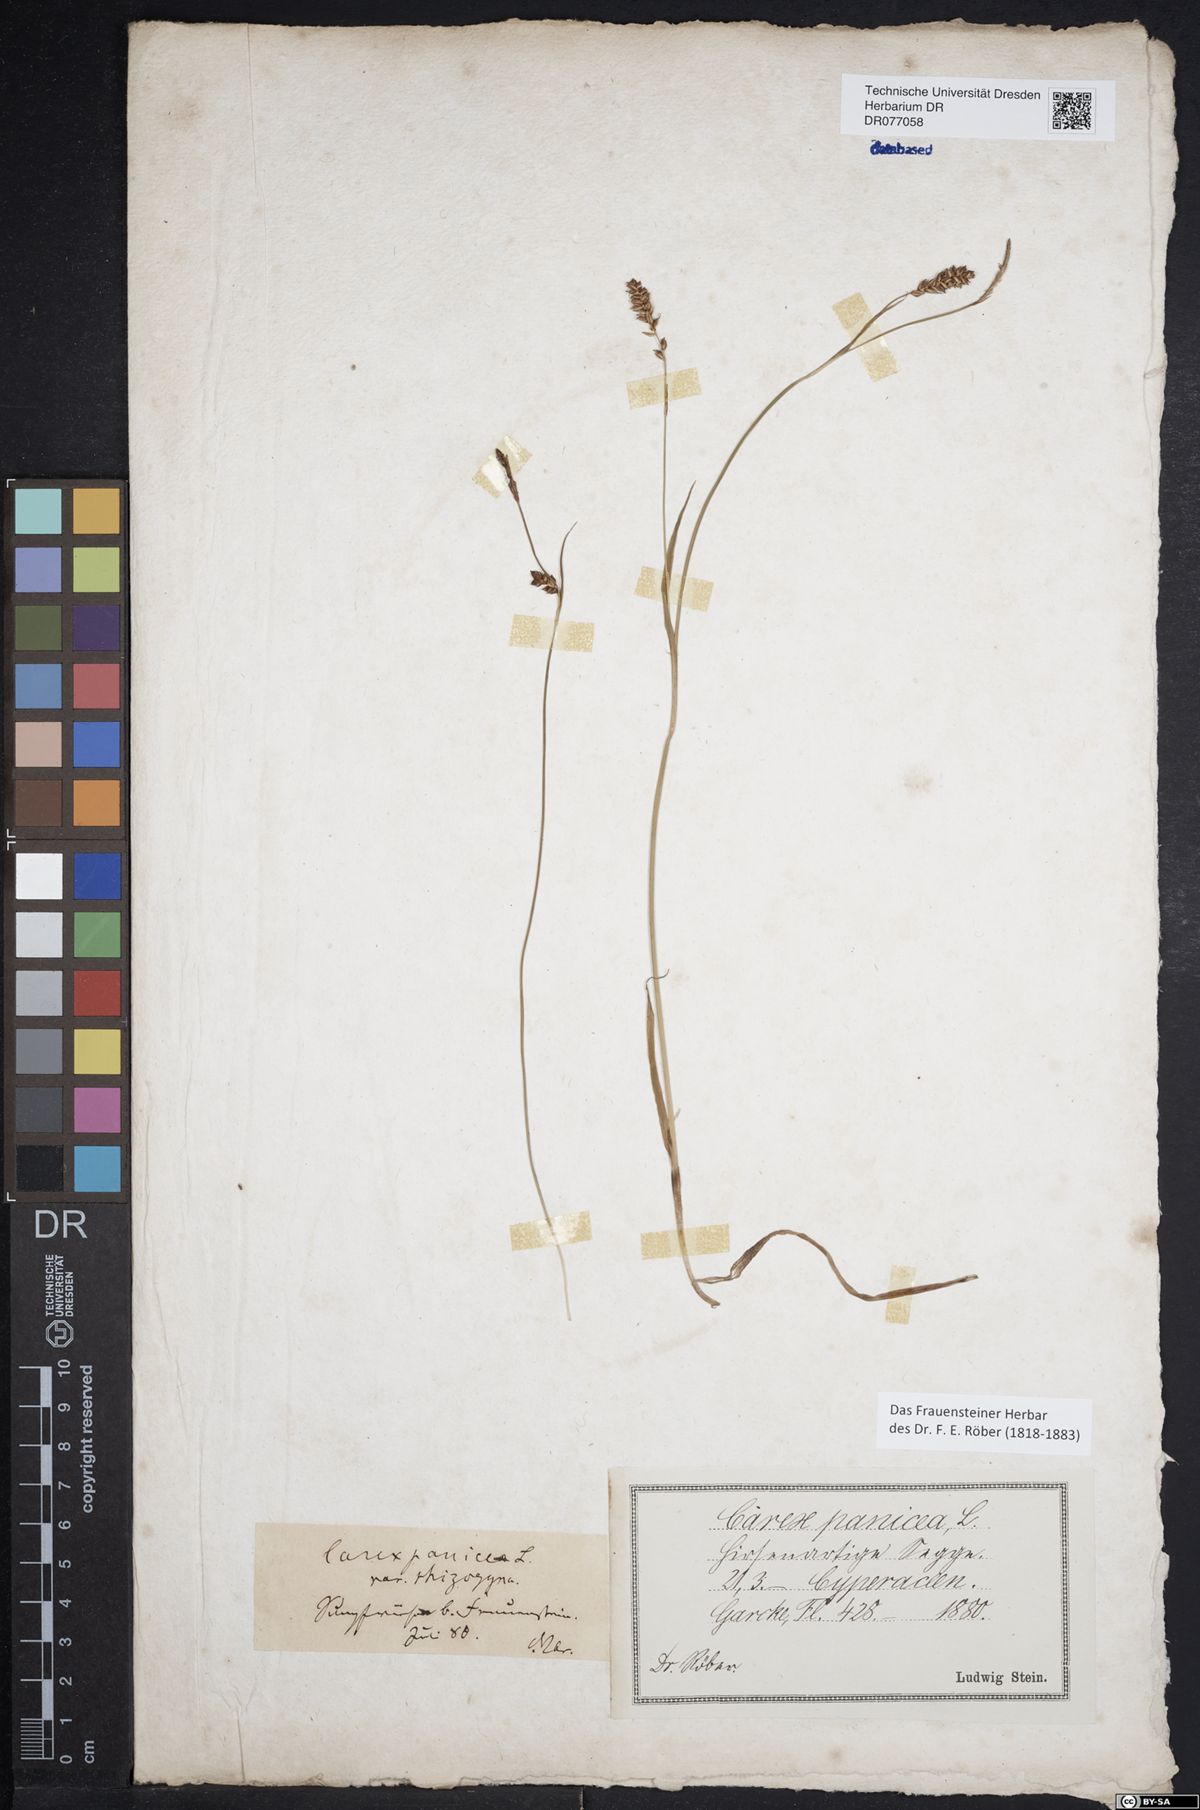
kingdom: Plantae
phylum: Tracheophyta
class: Liliopsida
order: Poales
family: Cyperaceae
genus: Carex
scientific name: Carex panicea
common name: Carnation sedge
